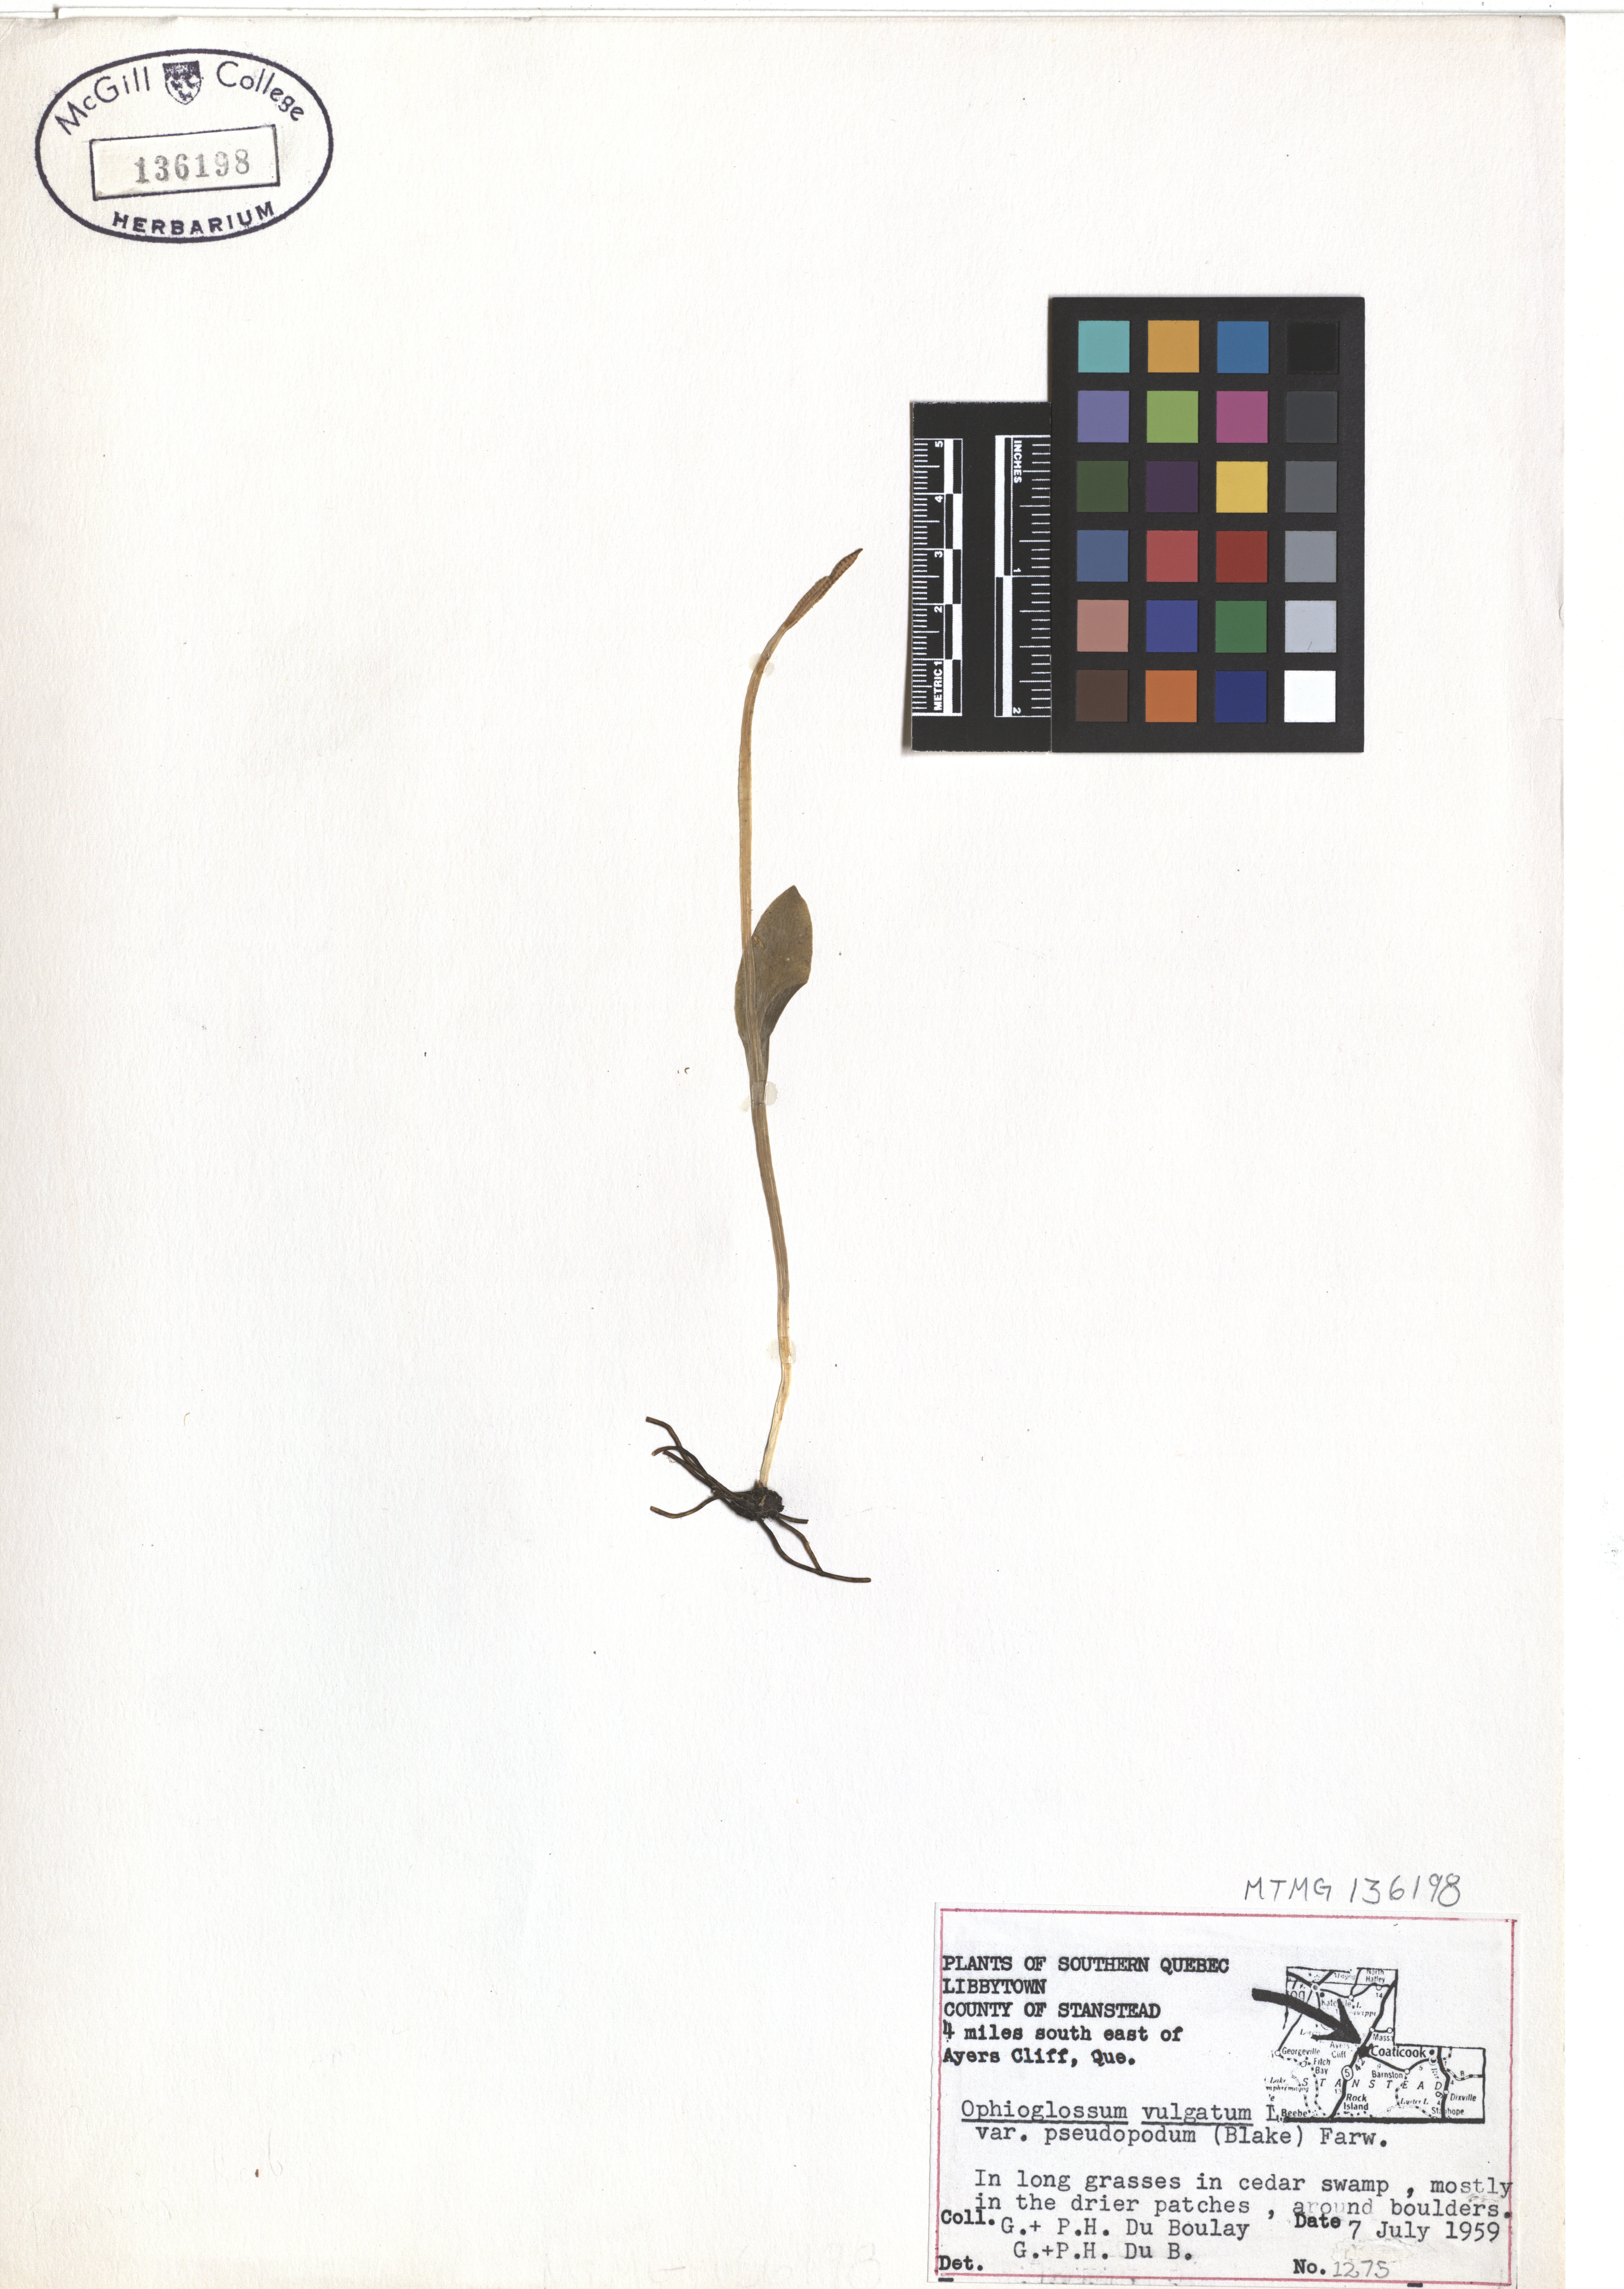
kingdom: Plantae
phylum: Tracheophyta
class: Polypodiopsida
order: Ophioglossales
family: Ophioglossaceae
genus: Ophioglossum
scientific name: Ophioglossum pusillum
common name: Northern adder's-tongue
